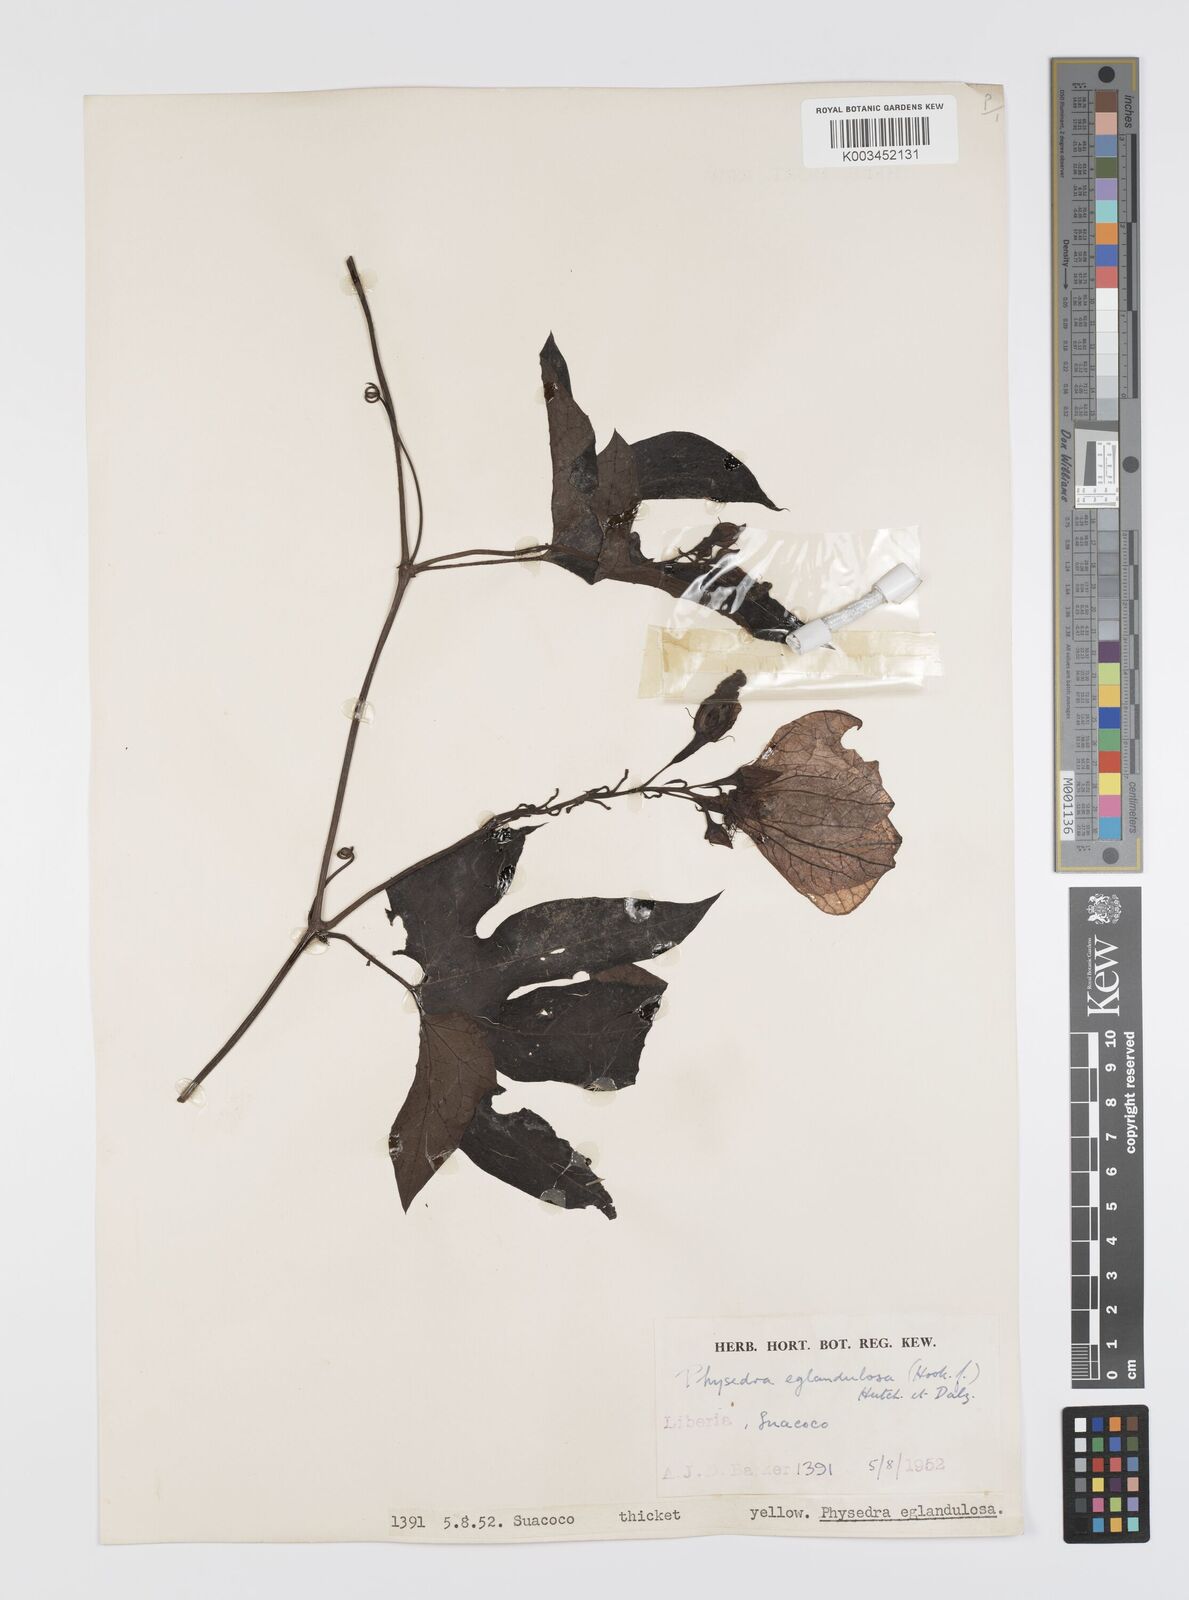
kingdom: Plantae
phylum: Tracheophyta
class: Magnoliopsida
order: Cucurbitales
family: Cucurbitaceae
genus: Ruthalicia
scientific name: Ruthalicia eglandulosa
